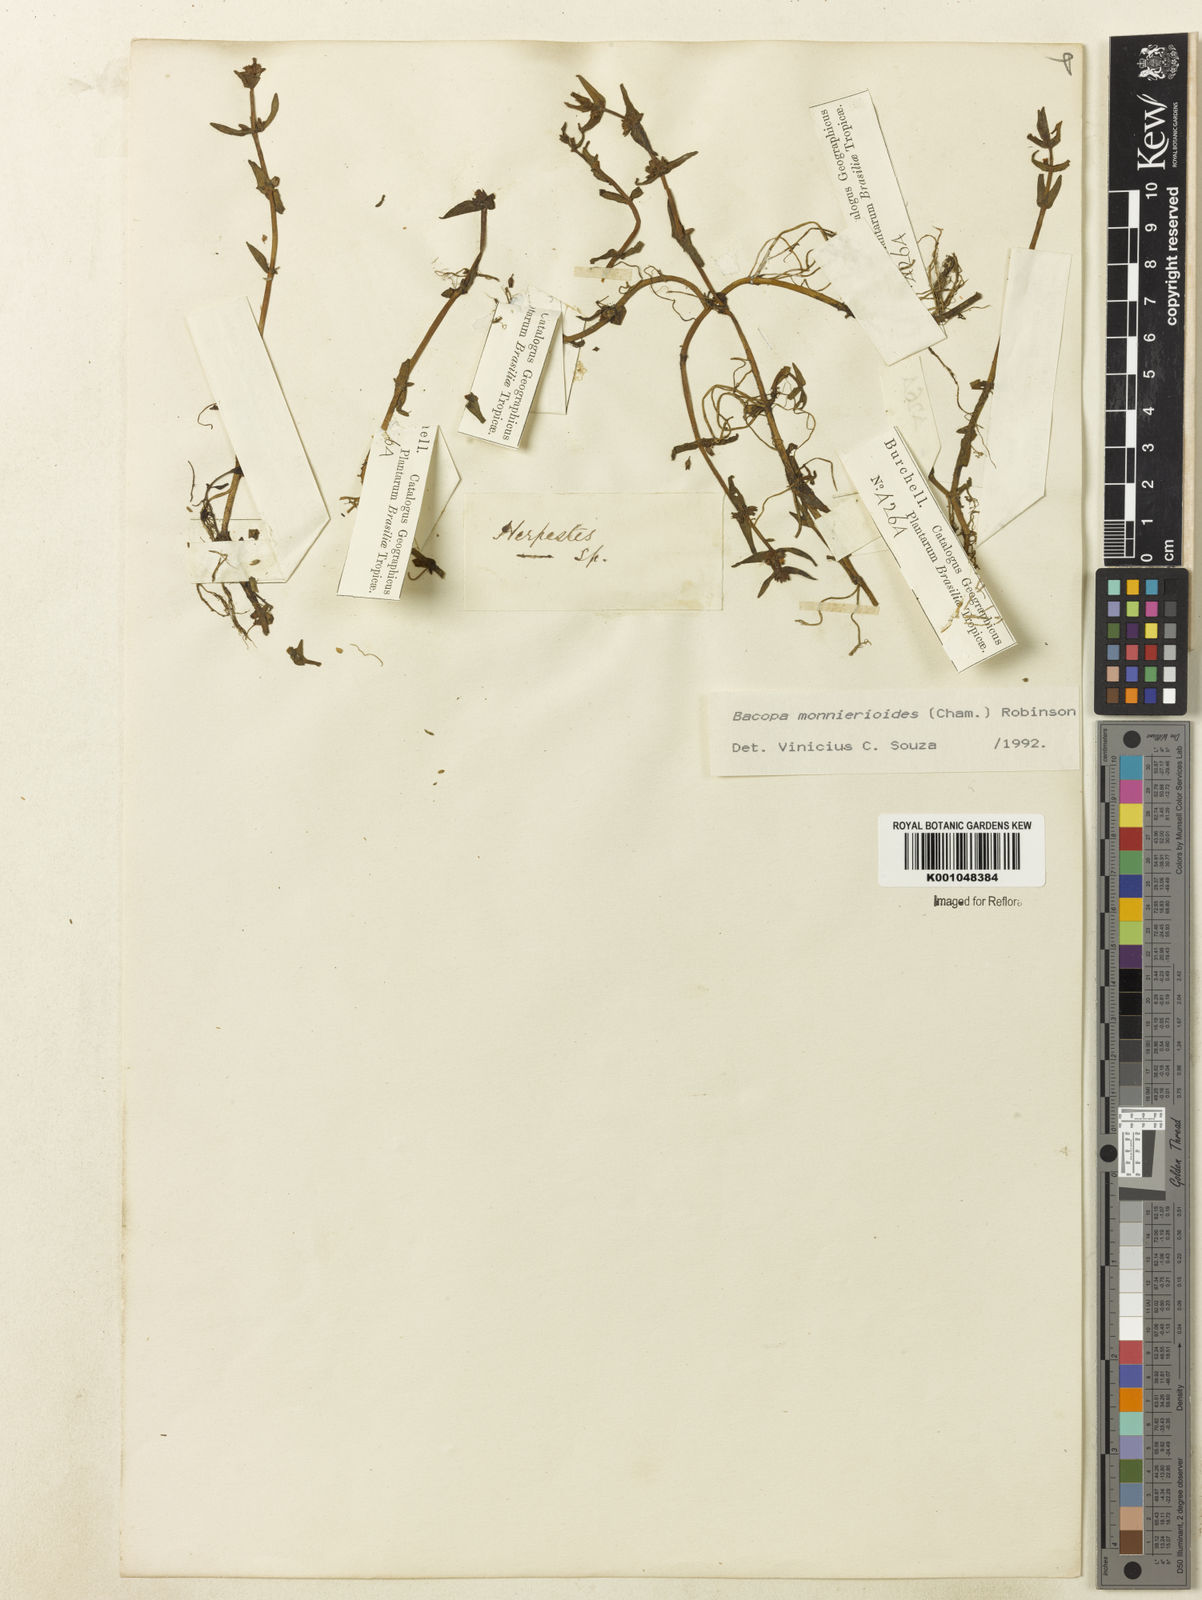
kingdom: Plantae
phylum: Tracheophyta
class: Magnoliopsida
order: Lamiales
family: Plantaginaceae
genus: Bacopa
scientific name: Bacopa monnierioides
